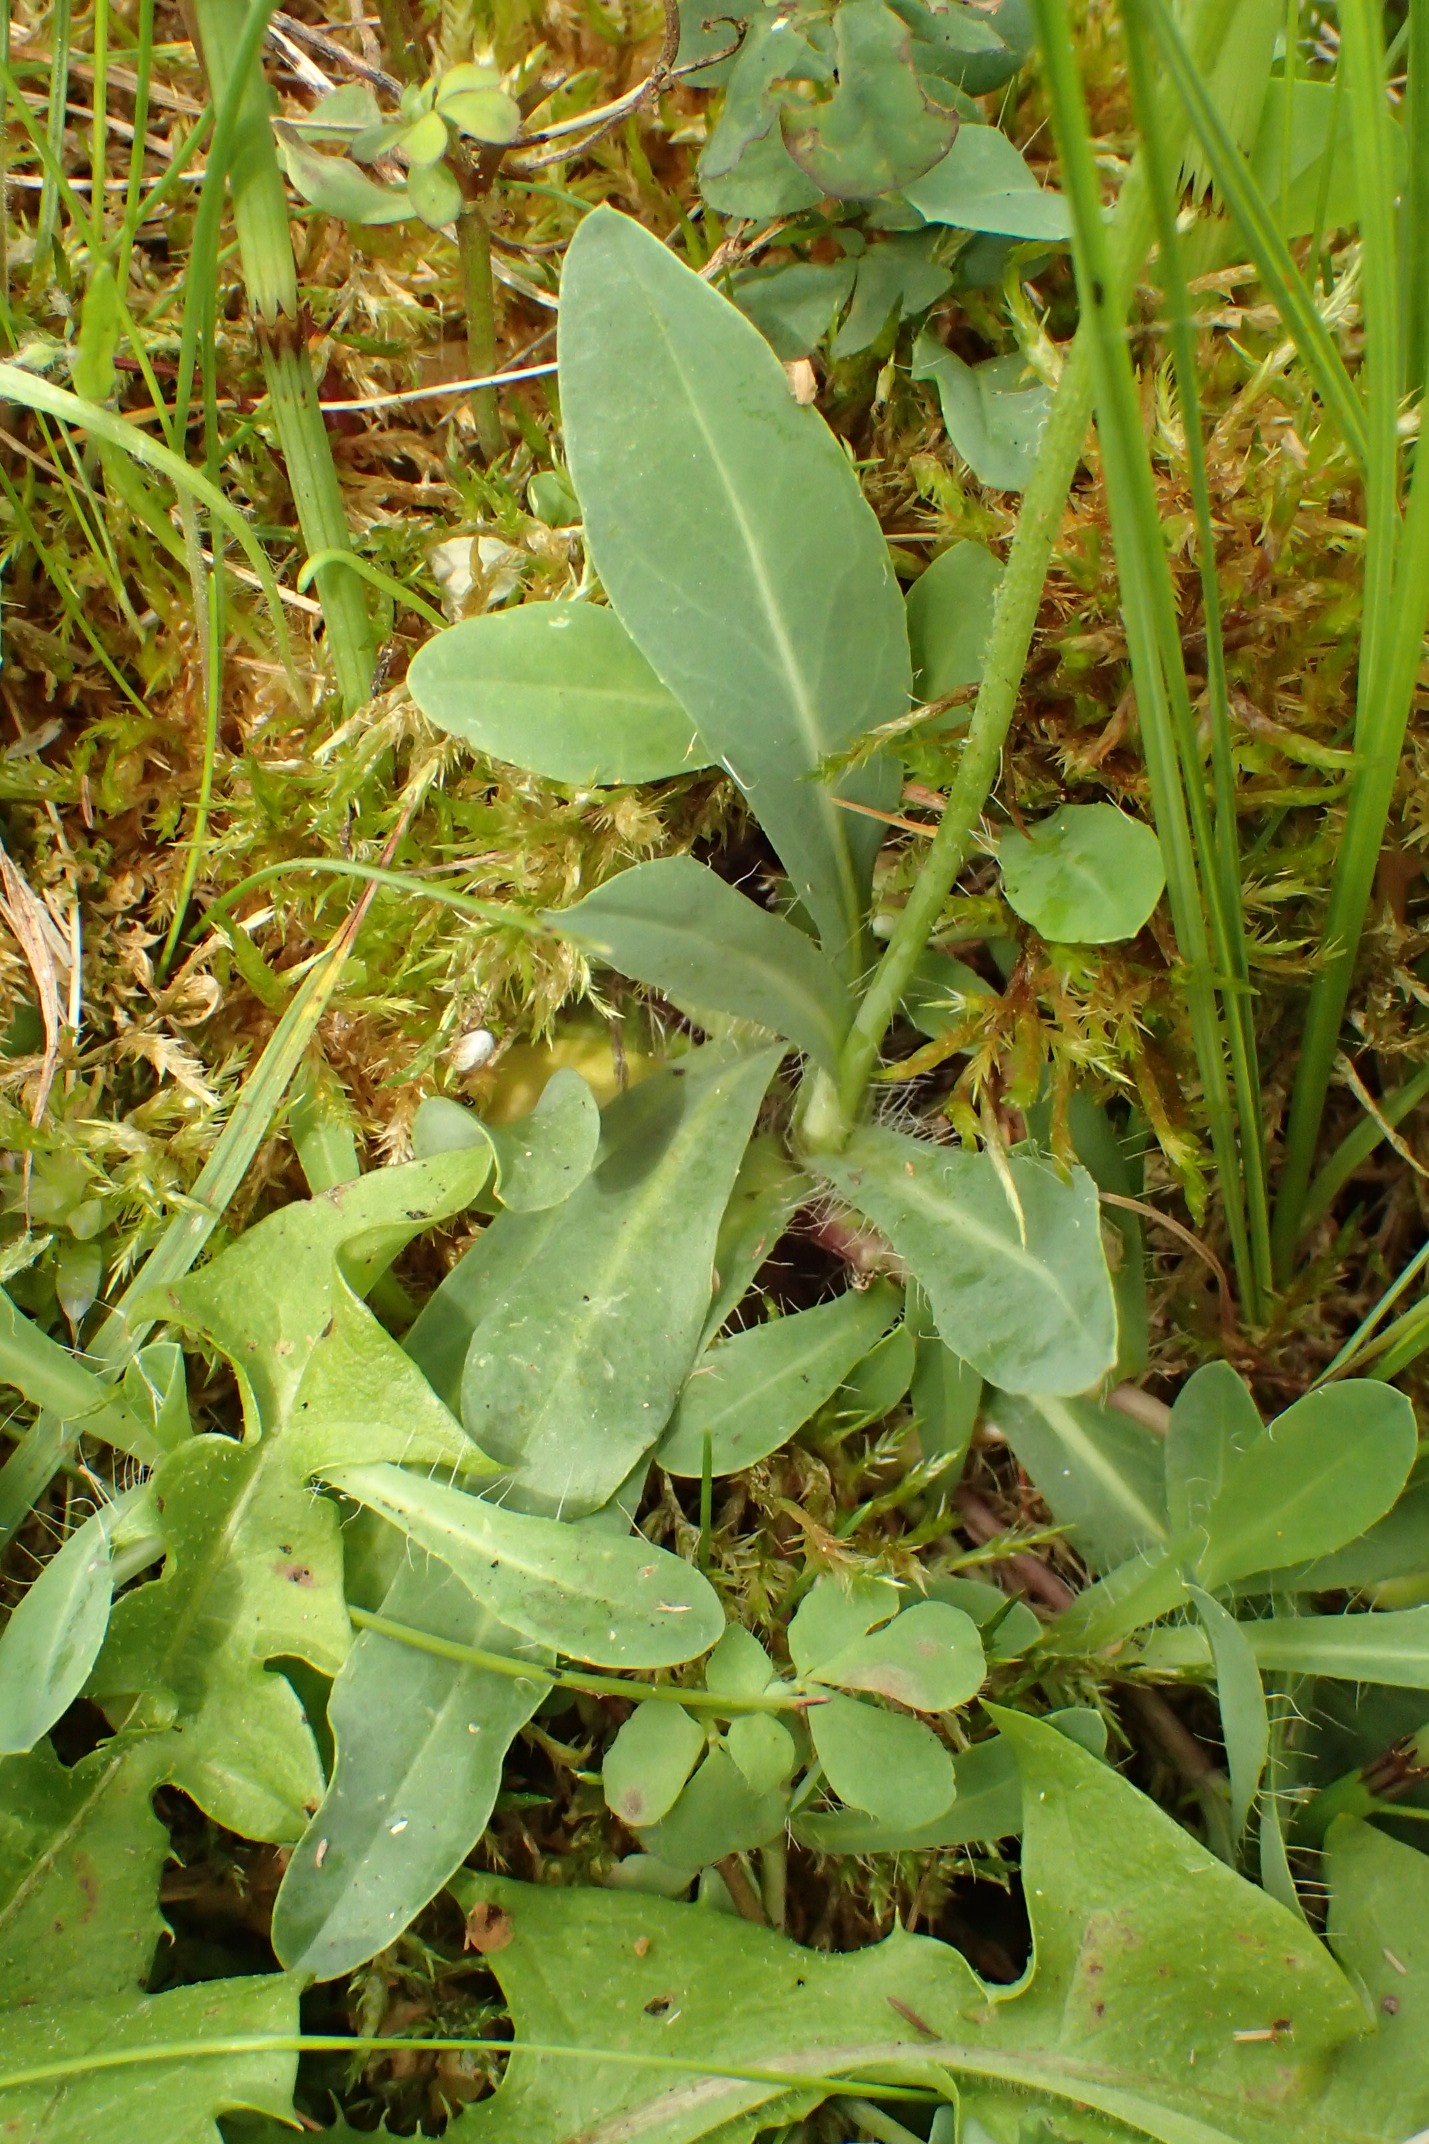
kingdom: Plantae
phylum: Tracheophyta
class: Magnoliopsida
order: Asterales
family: Asteraceae
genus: Pilosella
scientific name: Pilosella lactucella
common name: Lancetbladet høgeurt
